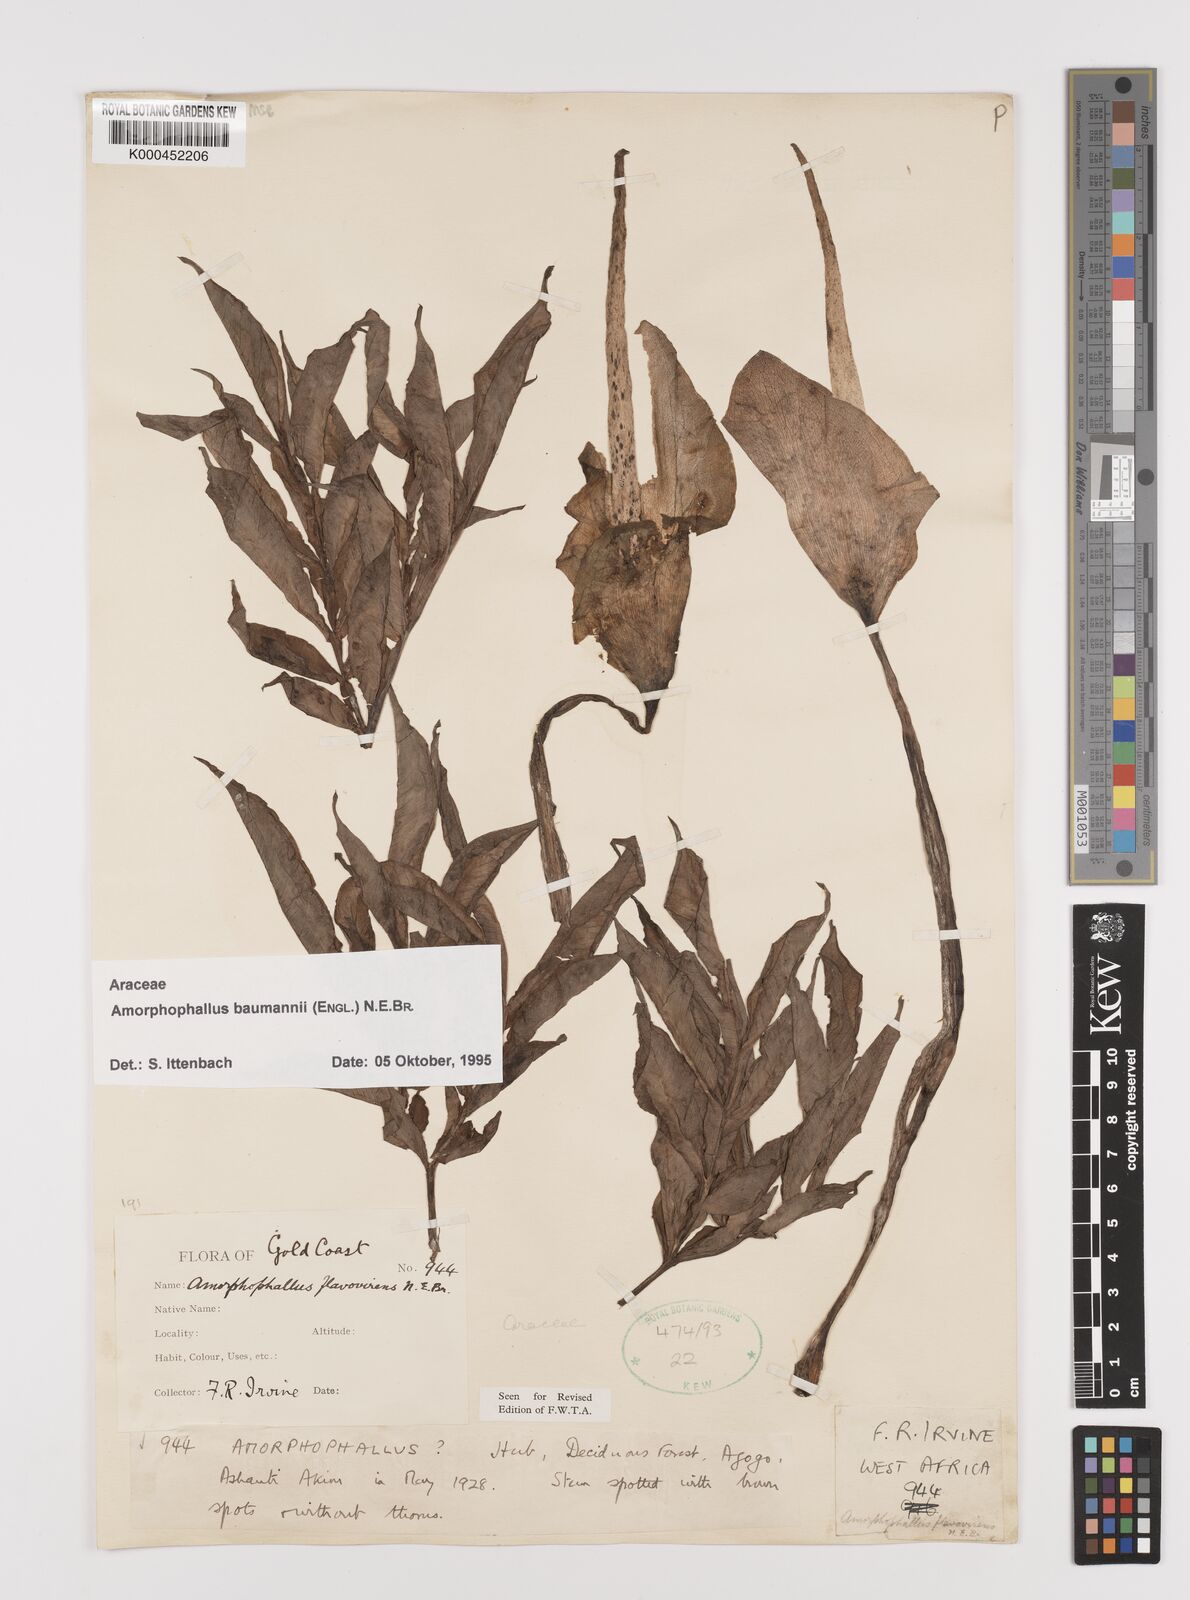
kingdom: Plantae
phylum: Tracheophyta
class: Liliopsida
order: Alismatales
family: Araceae
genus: Amorphophallus
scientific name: Amorphophallus baumannii
